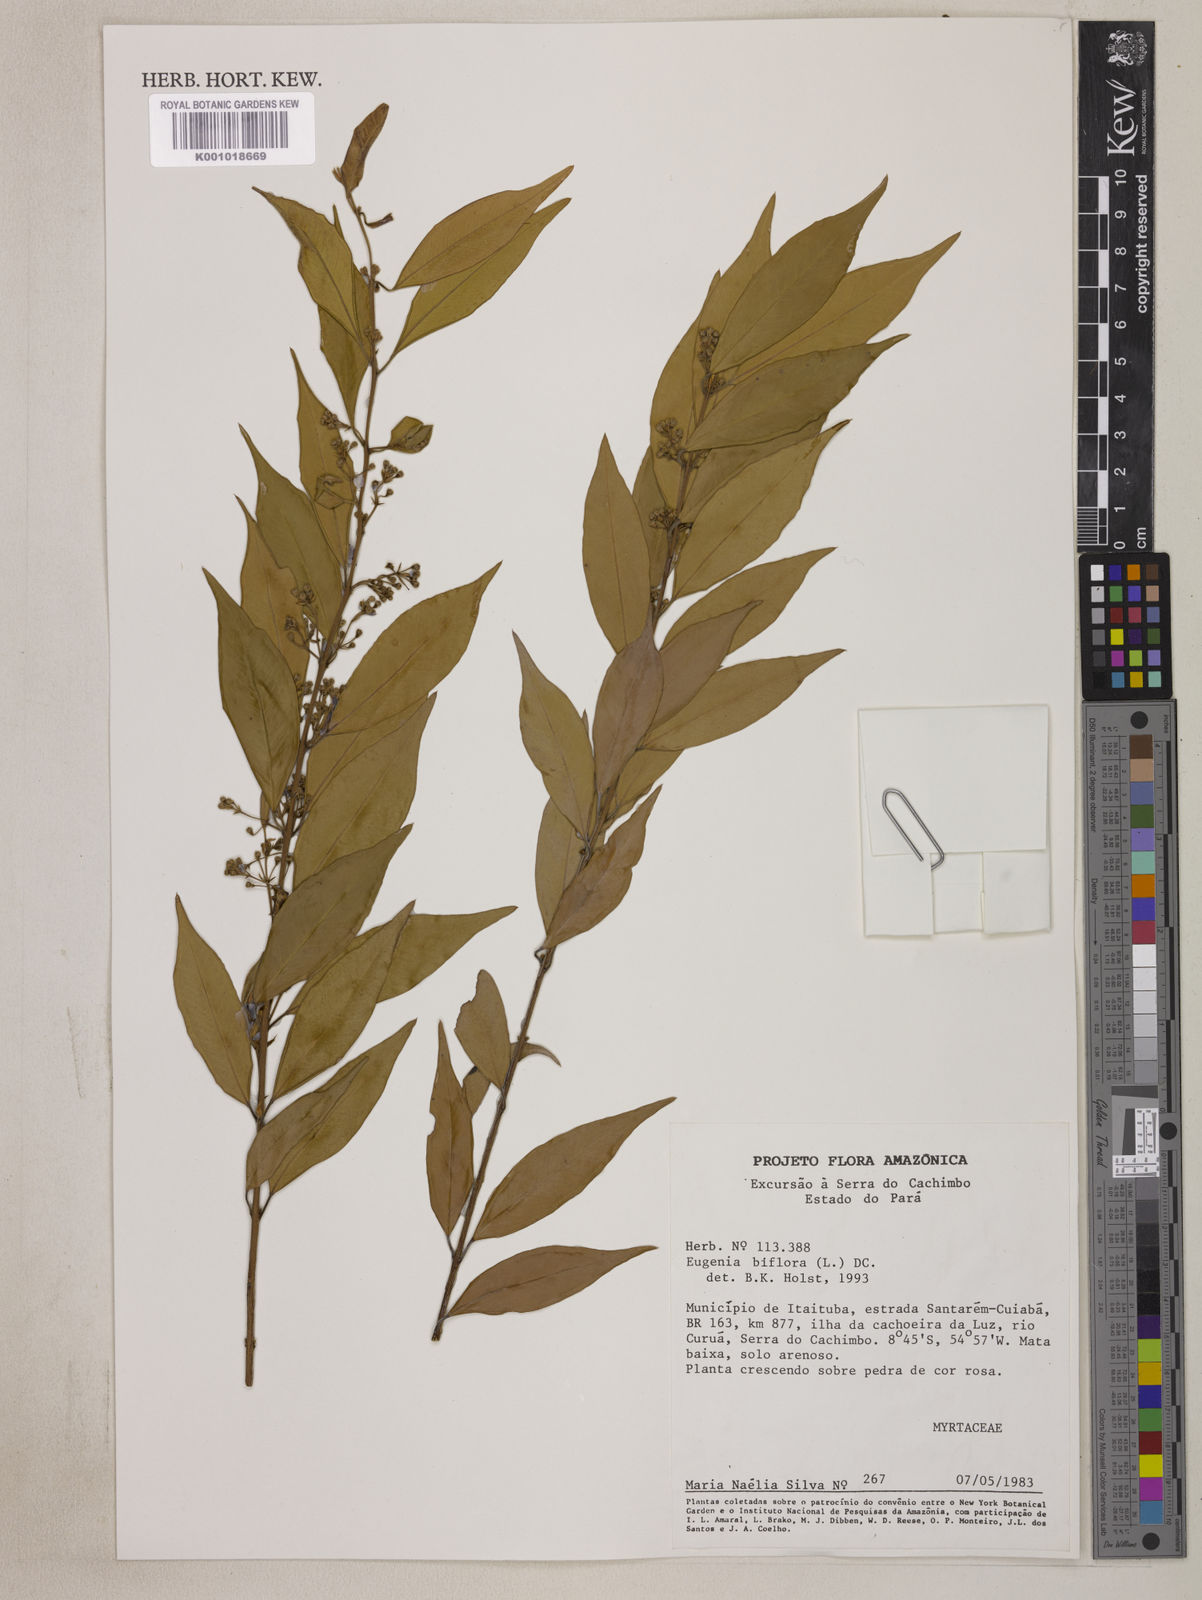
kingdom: Plantae
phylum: Tracheophyta
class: Magnoliopsida
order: Myrtales
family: Myrtaceae
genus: Eugenia
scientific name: Eugenia biflora
